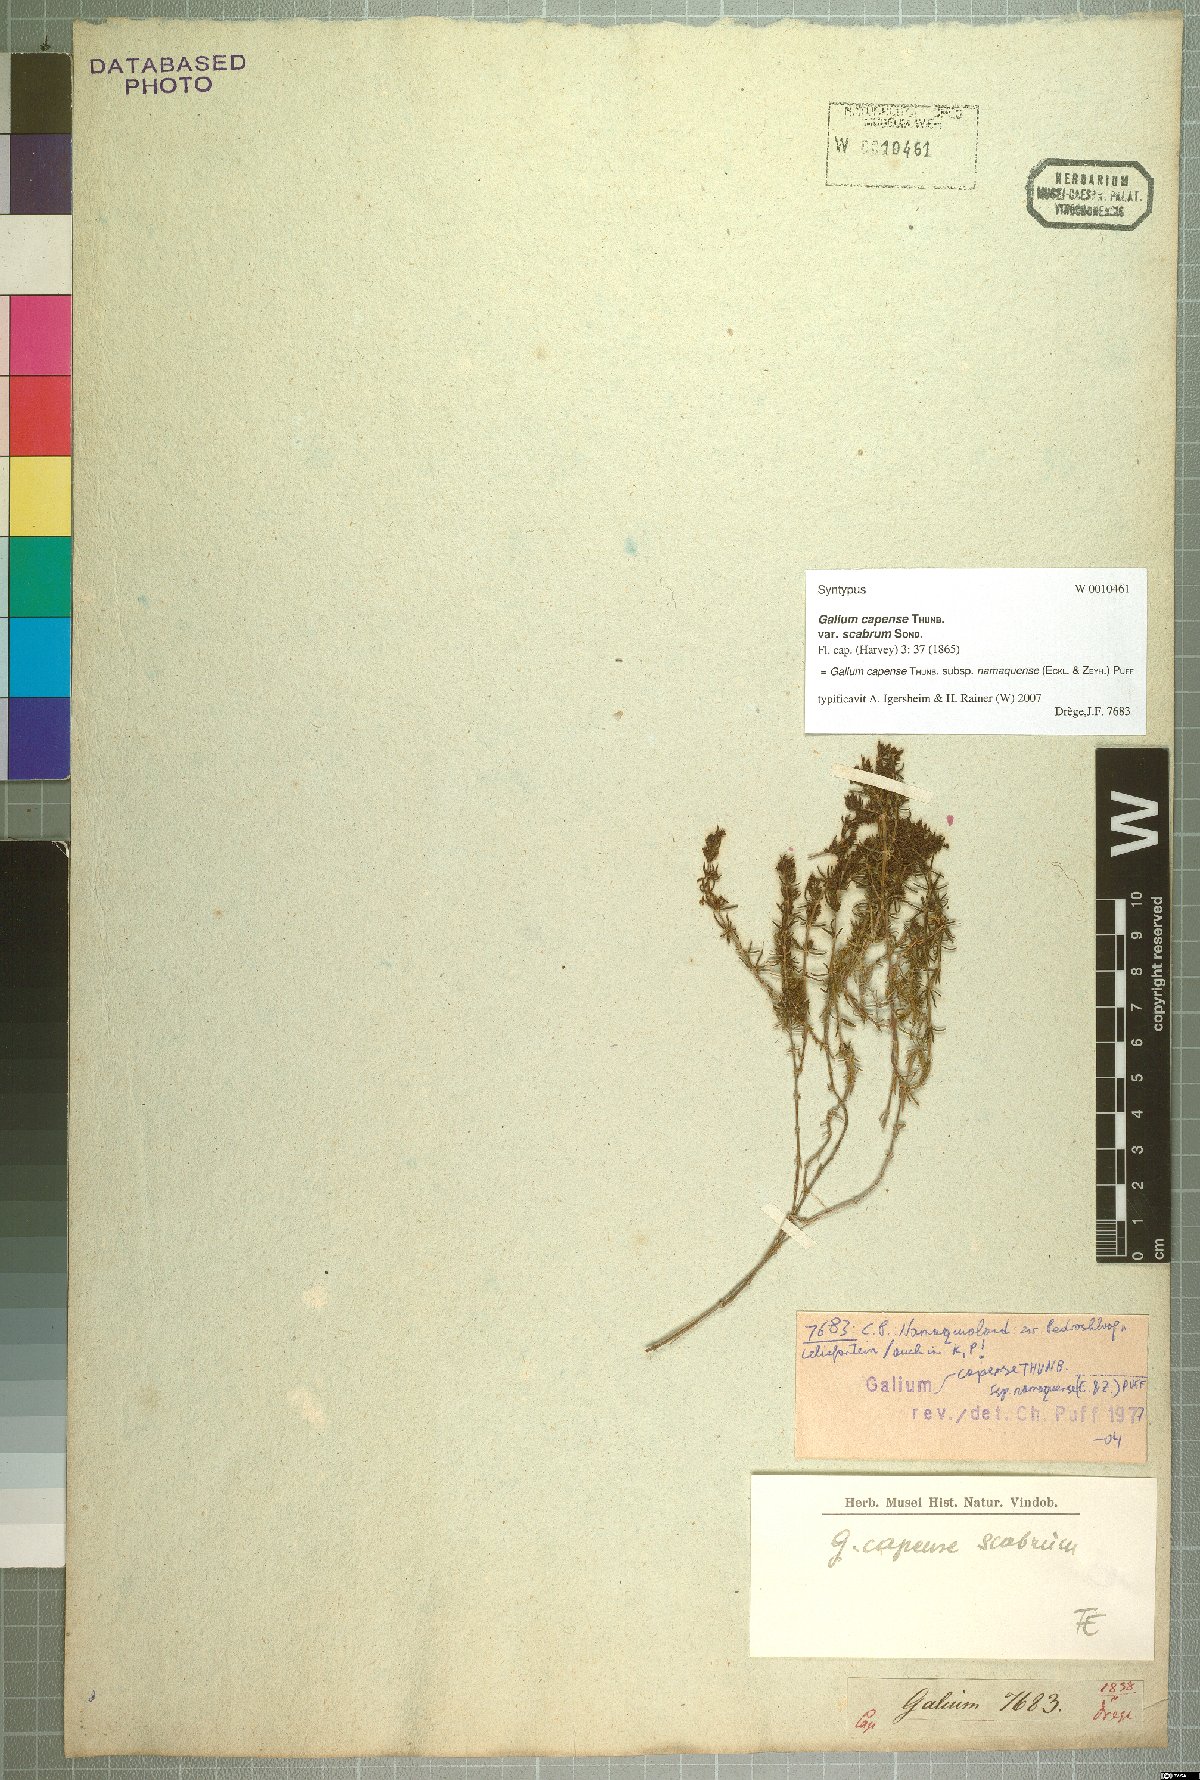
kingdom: Plantae
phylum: Tracheophyta
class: Magnoliopsida
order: Gentianales
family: Rubiaceae
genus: Galium
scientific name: Galium capense
